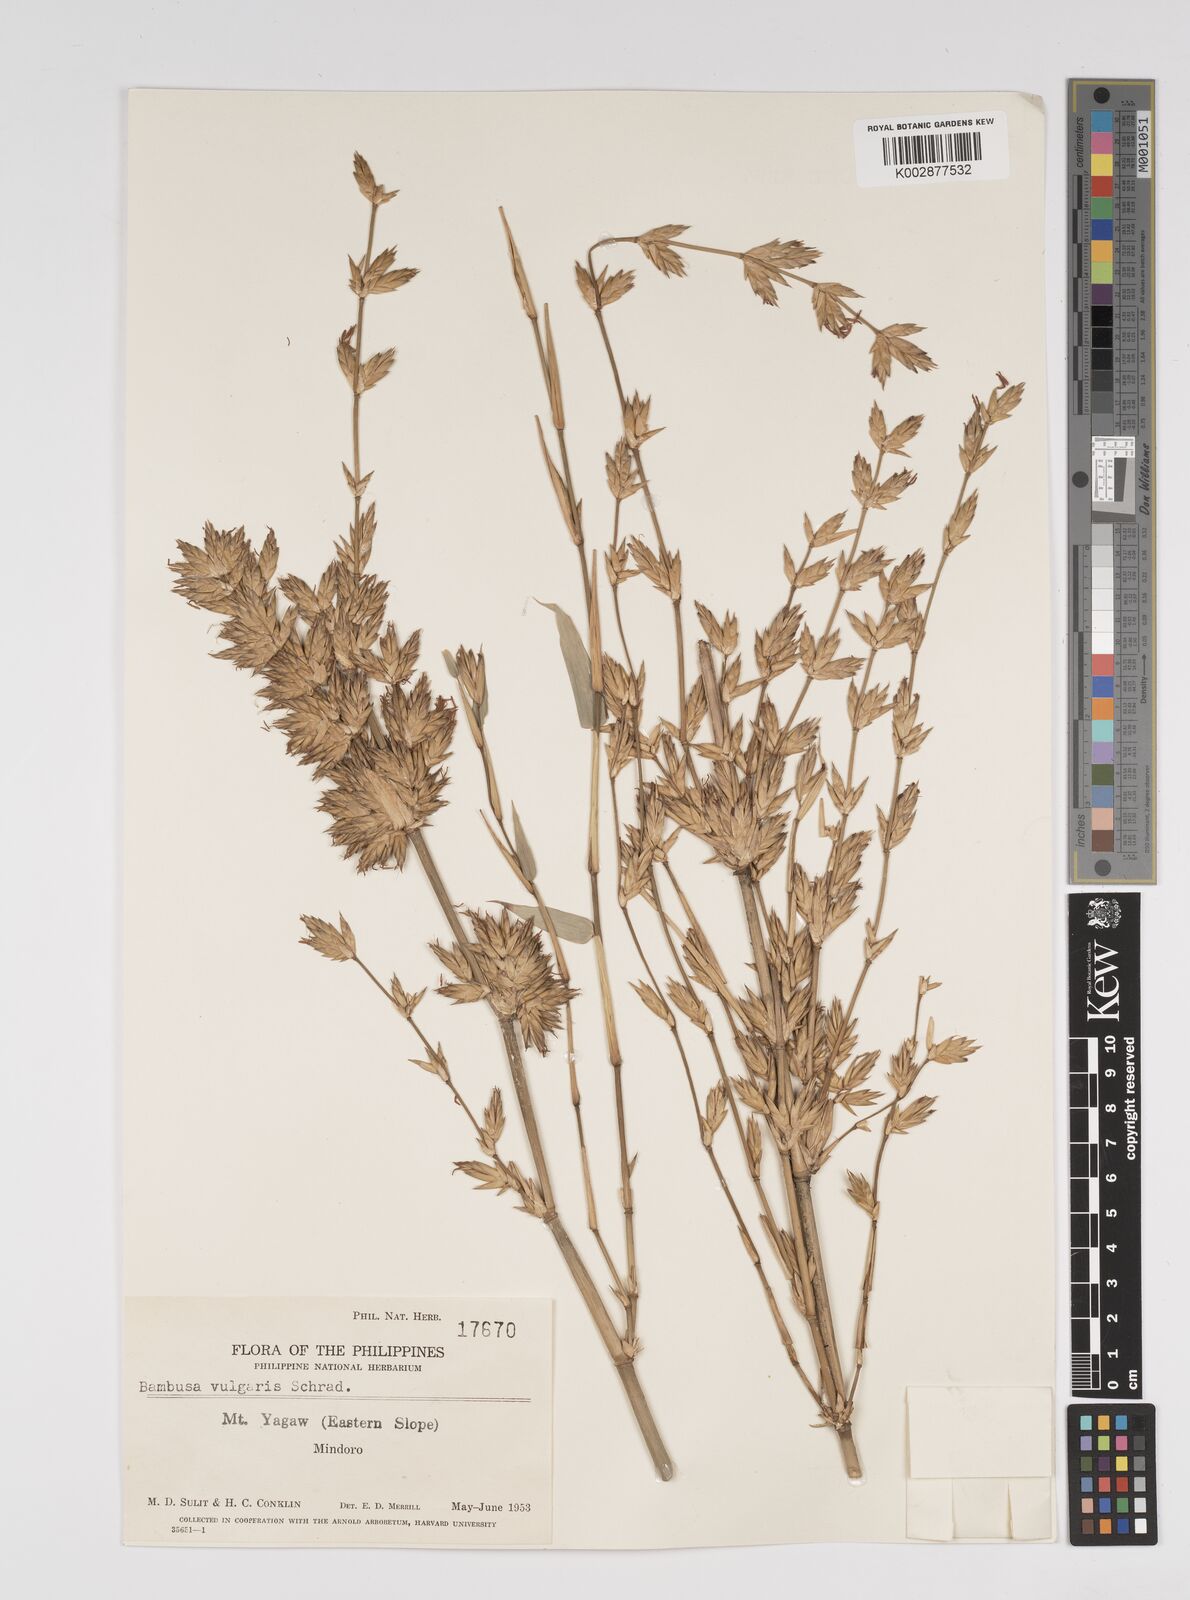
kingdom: Plantae
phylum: Tracheophyta
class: Liliopsida
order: Poales
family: Poaceae
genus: Bambusa
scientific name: Bambusa vulgaris
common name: Common bamboo
